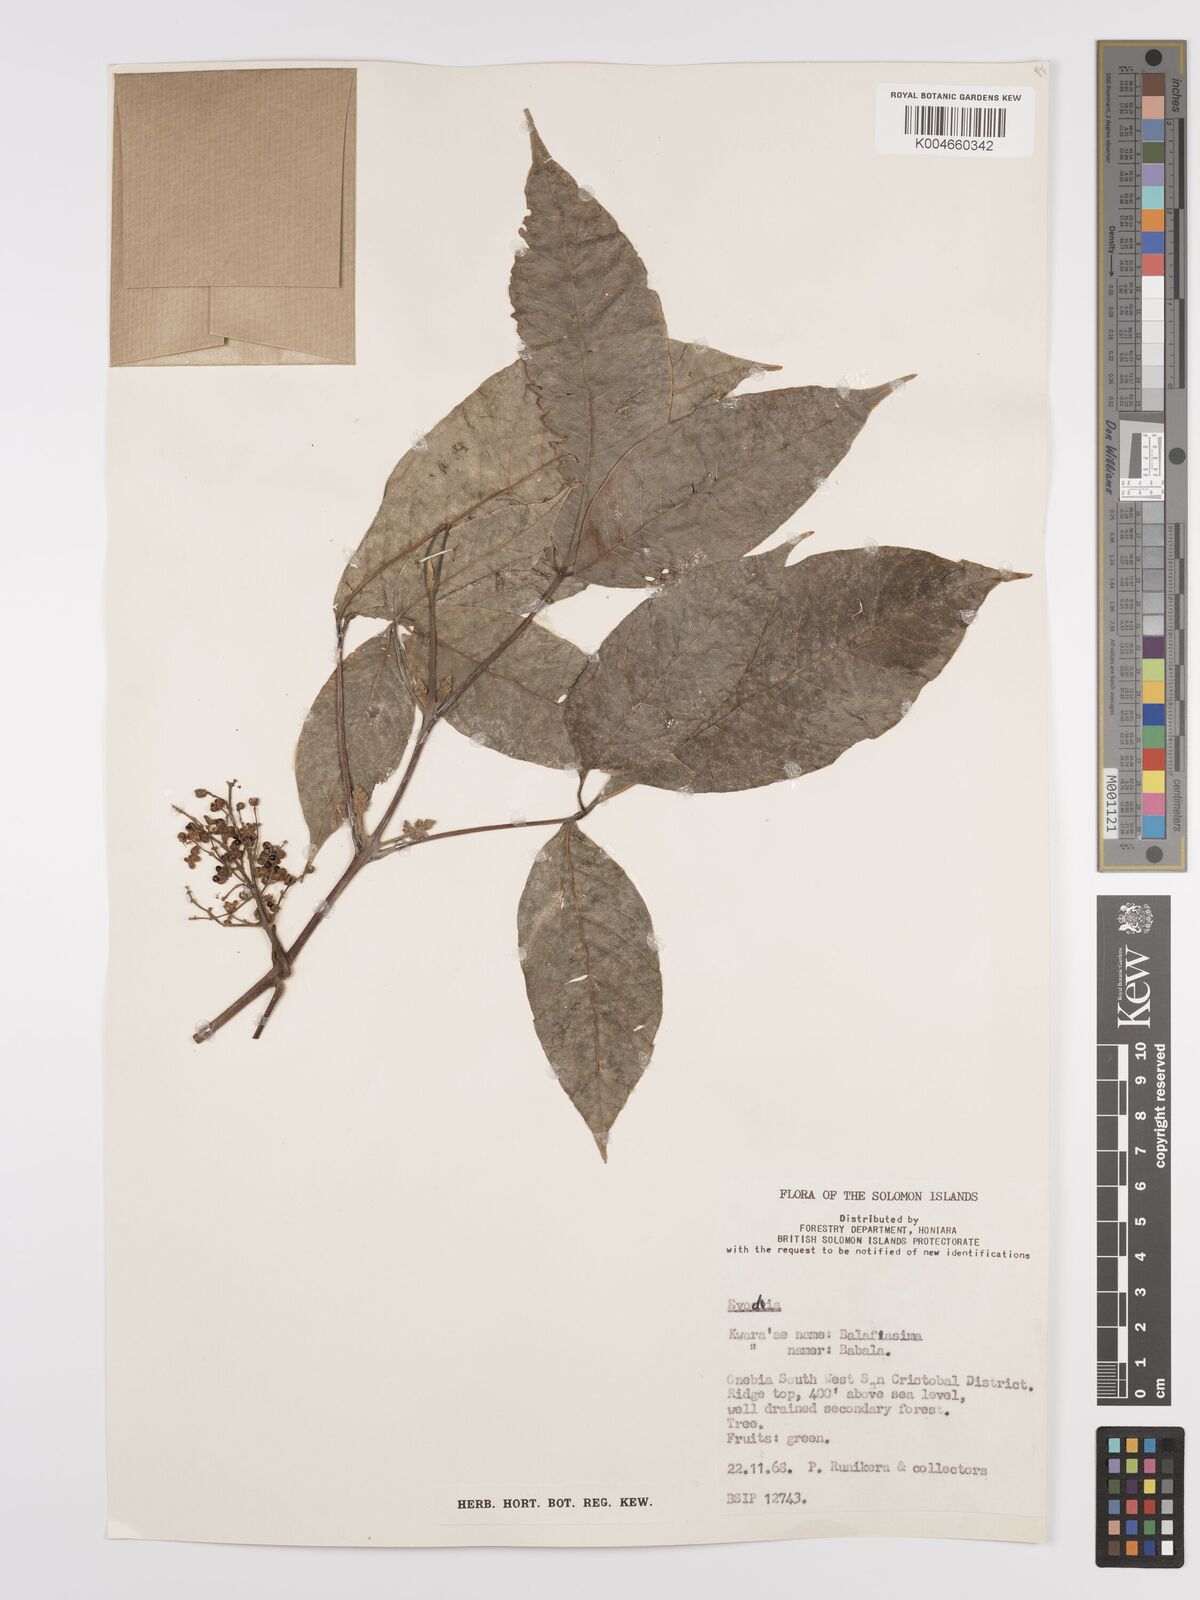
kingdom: Plantae
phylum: Tracheophyta
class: Magnoliopsida
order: Sapindales
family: Rutaceae
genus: Euodia
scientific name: Euodia
